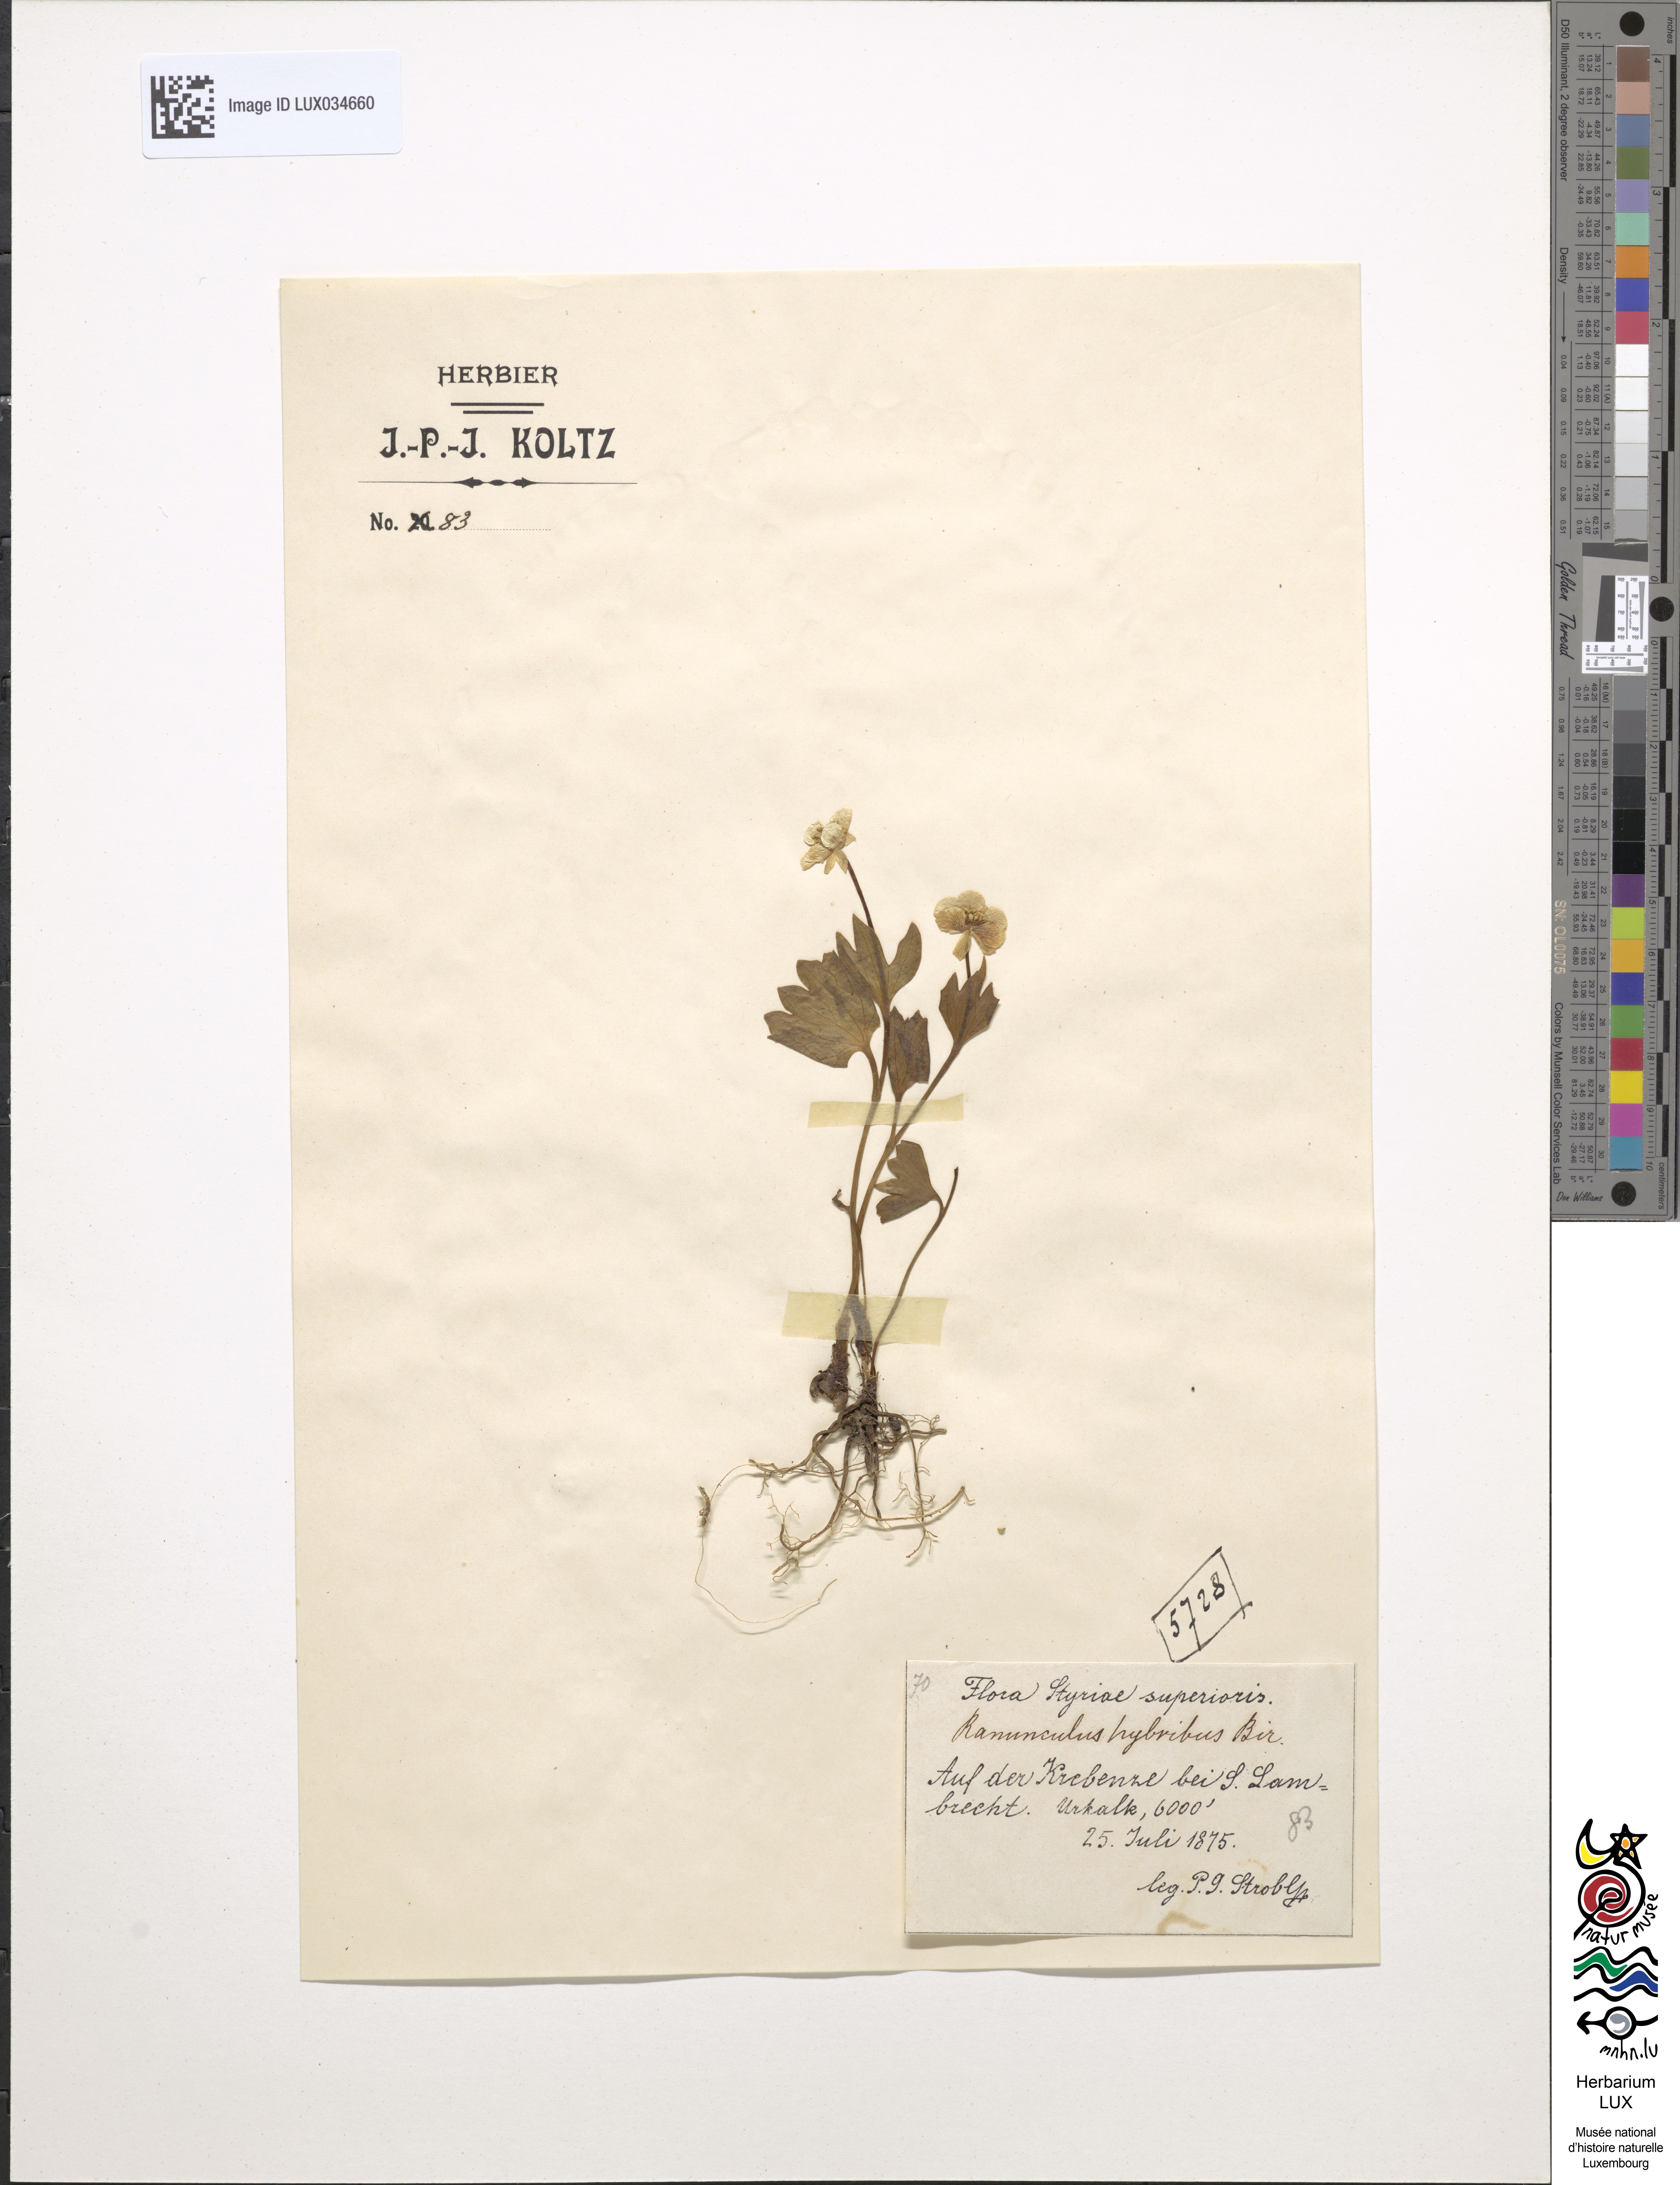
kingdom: Plantae
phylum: Tracheophyta
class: Magnoliopsida
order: Ranunculales
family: Ranunculaceae
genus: Ranunculus
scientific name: Ranunculus hybridus
